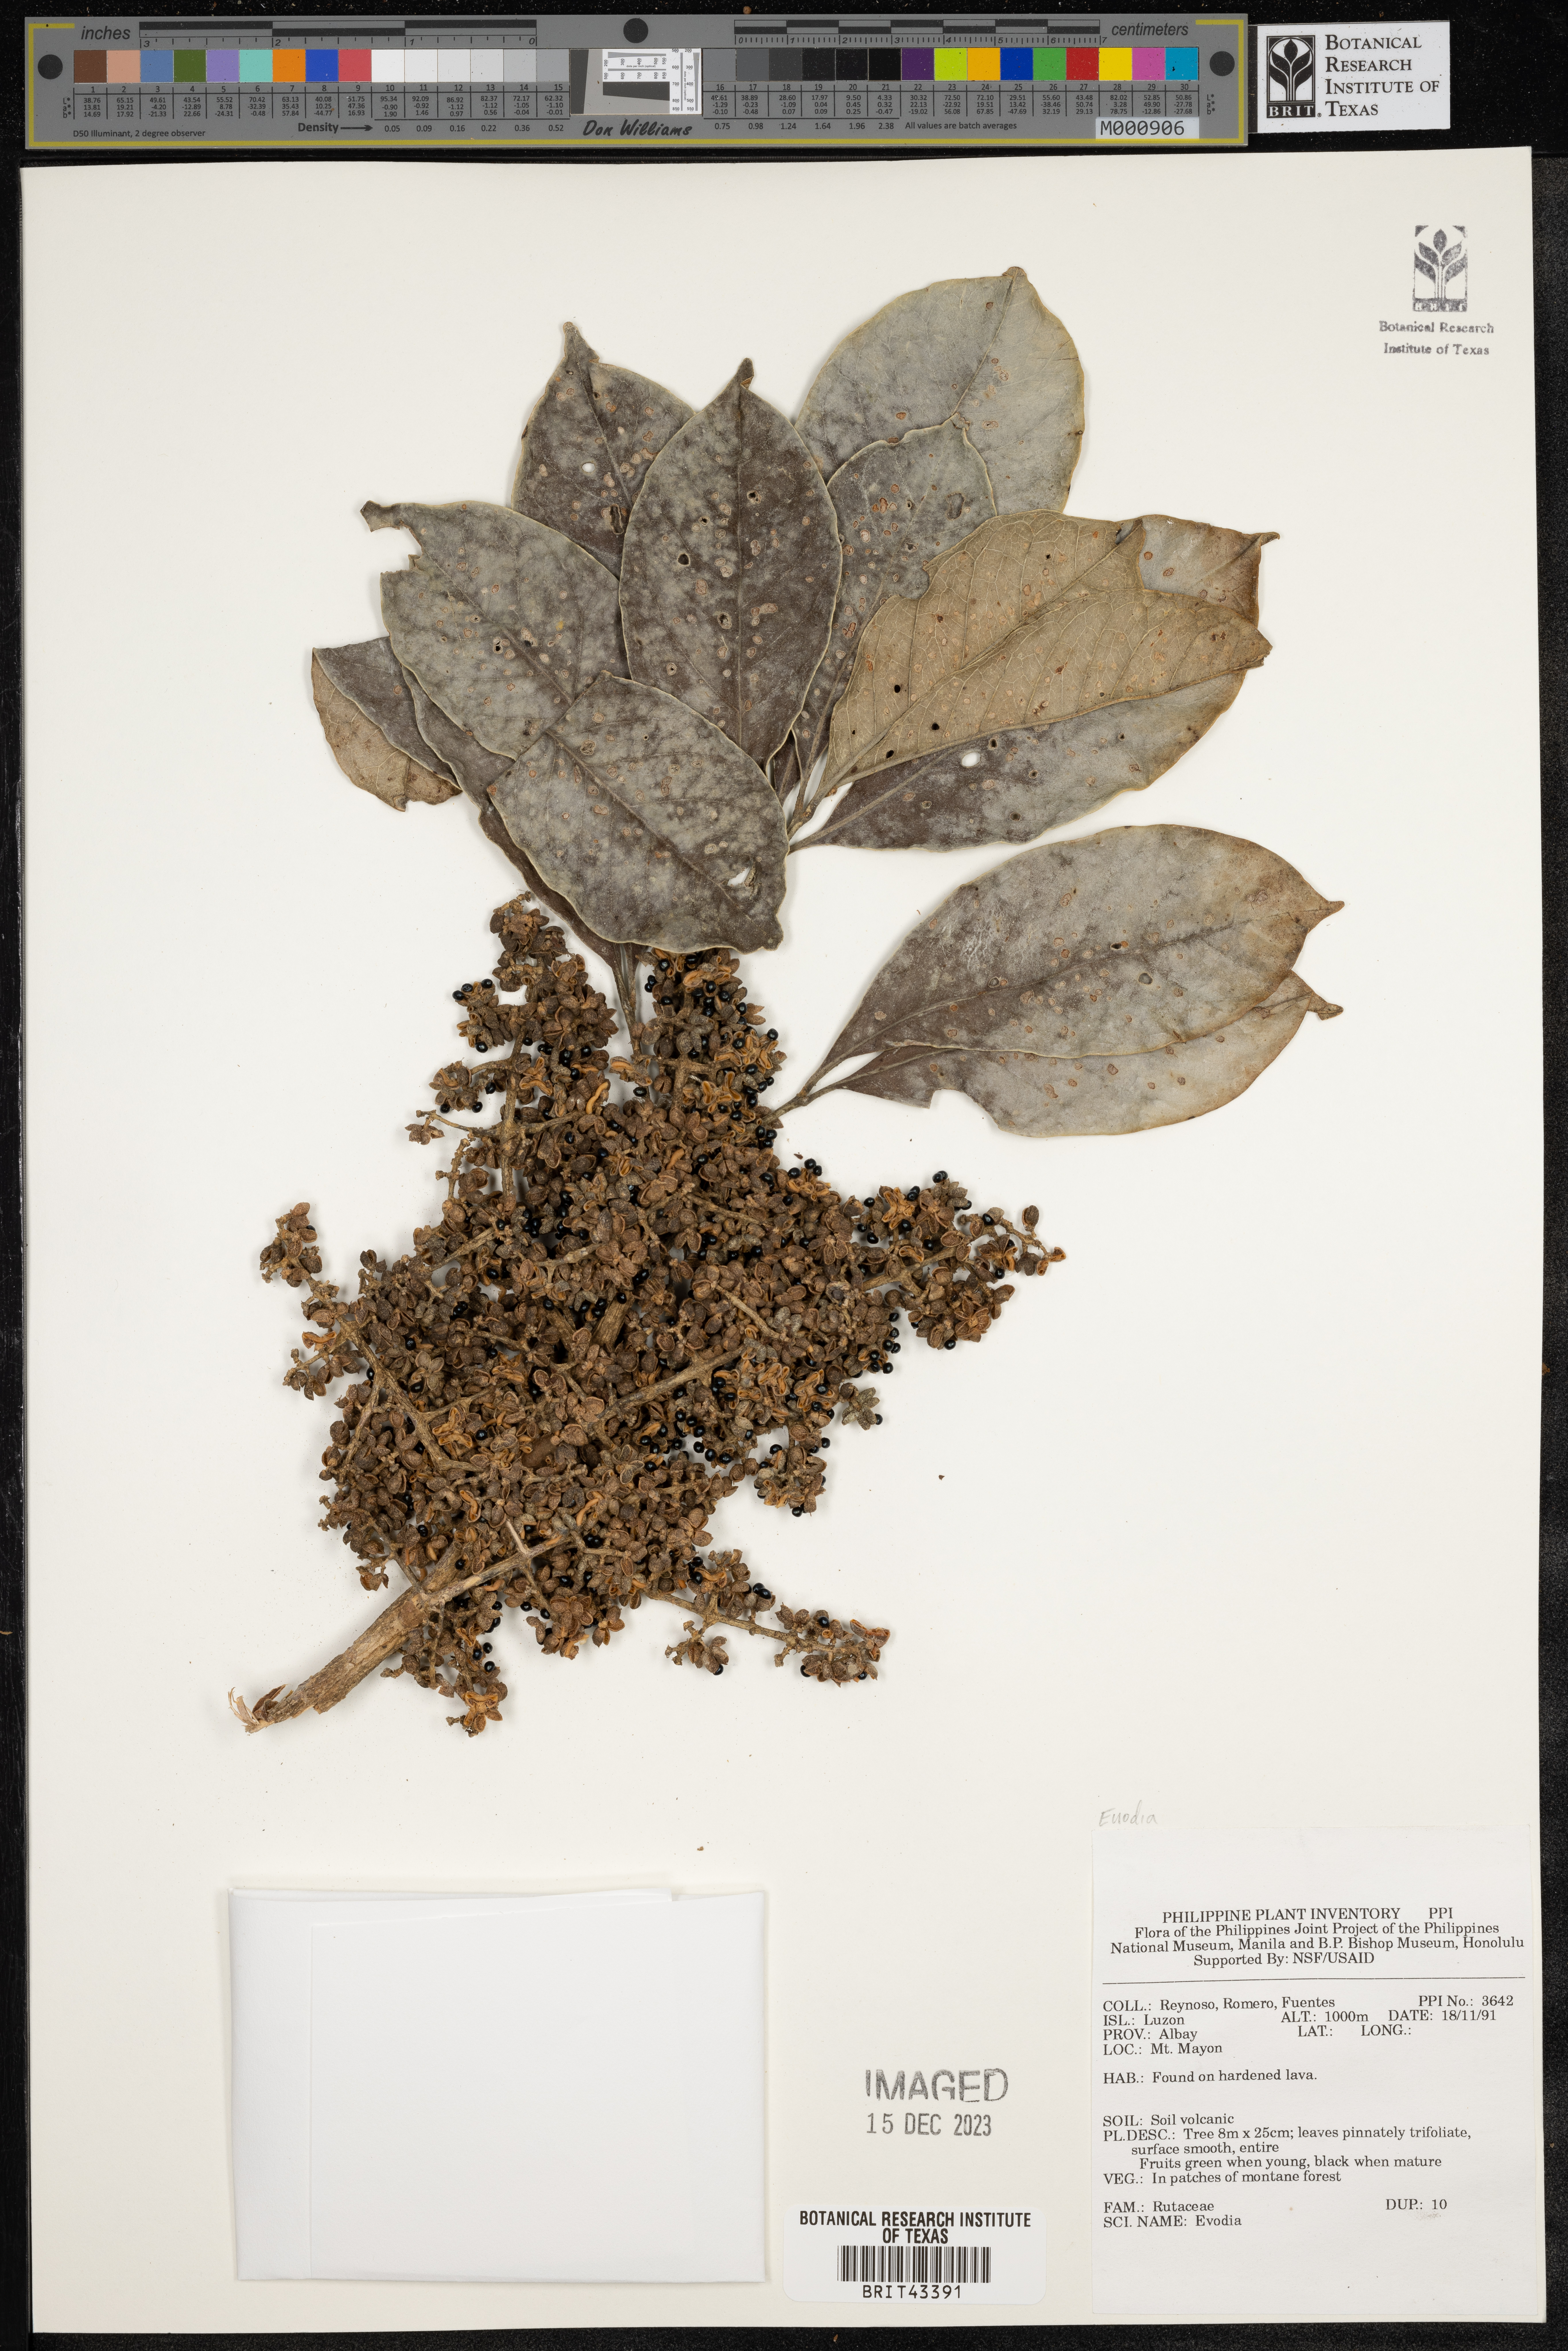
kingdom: Plantae
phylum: Tracheophyta
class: Magnoliopsida
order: Sapindales
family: Rutaceae
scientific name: Rutaceae
